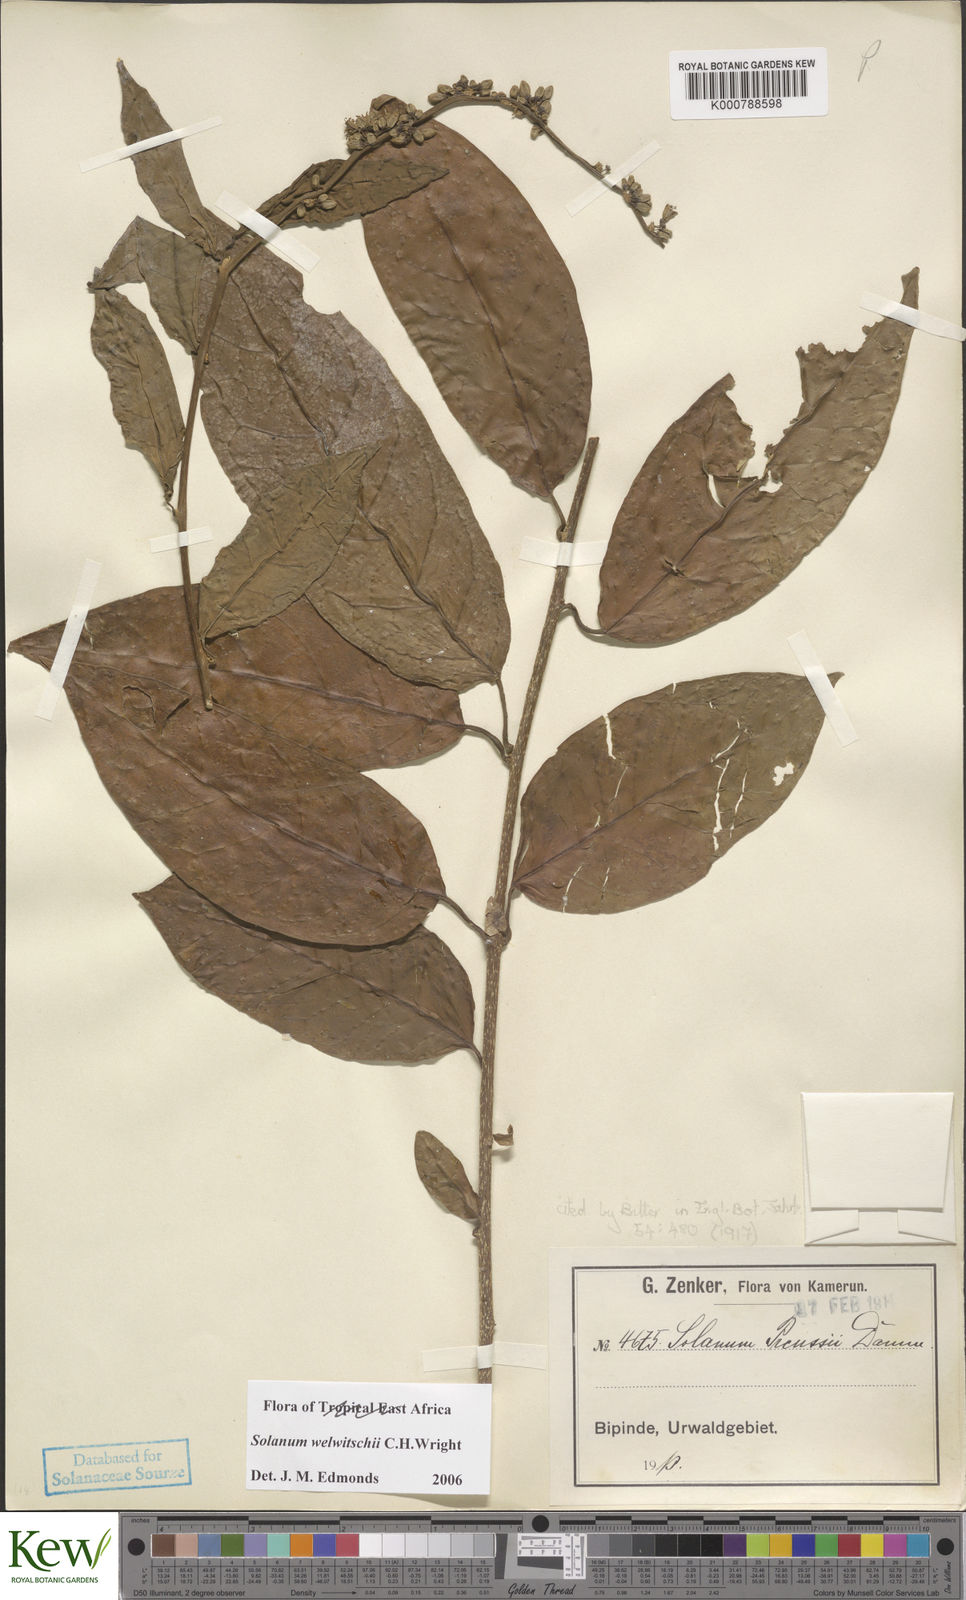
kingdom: Plantae
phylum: Tracheophyta
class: Magnoliopsida
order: Solanales
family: Solanaceae
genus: Solanum
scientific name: Solanum terminale
